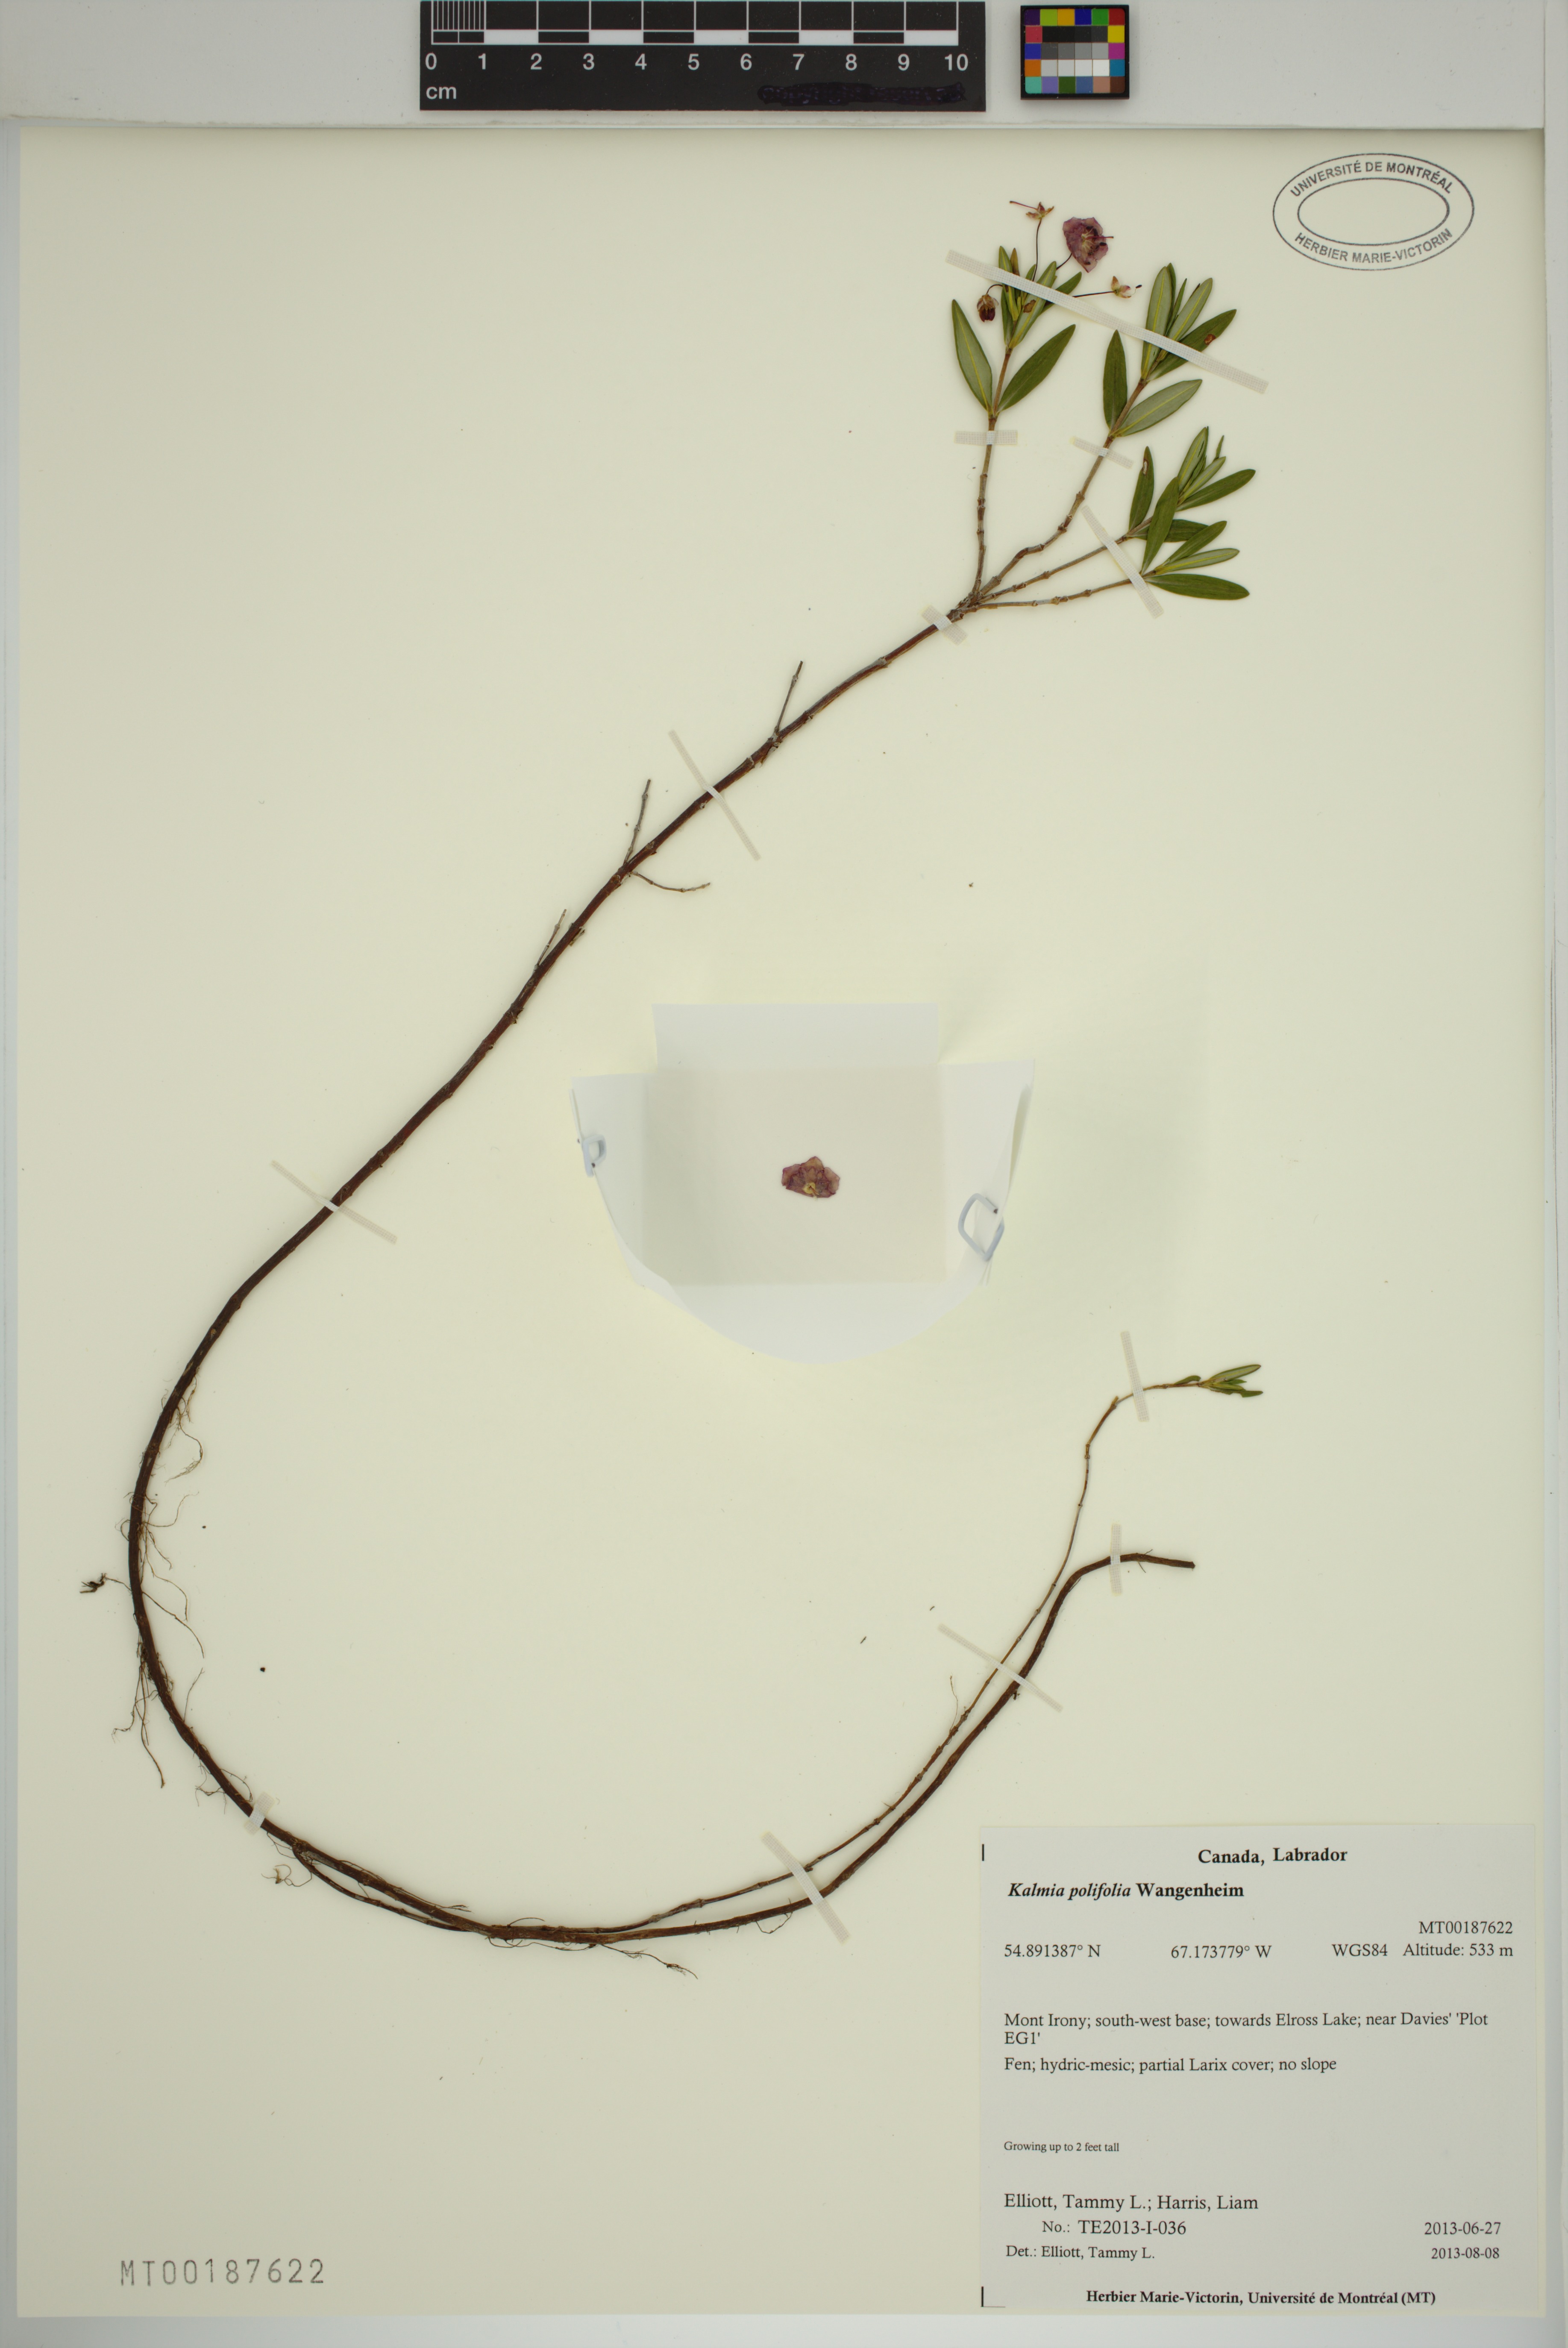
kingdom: Plantae
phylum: Tracheophyta
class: Magnoliopsida
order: Ericales
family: Ericaceae
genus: Kalmia
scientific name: Kalmia polifolia
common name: Bog-laurel
